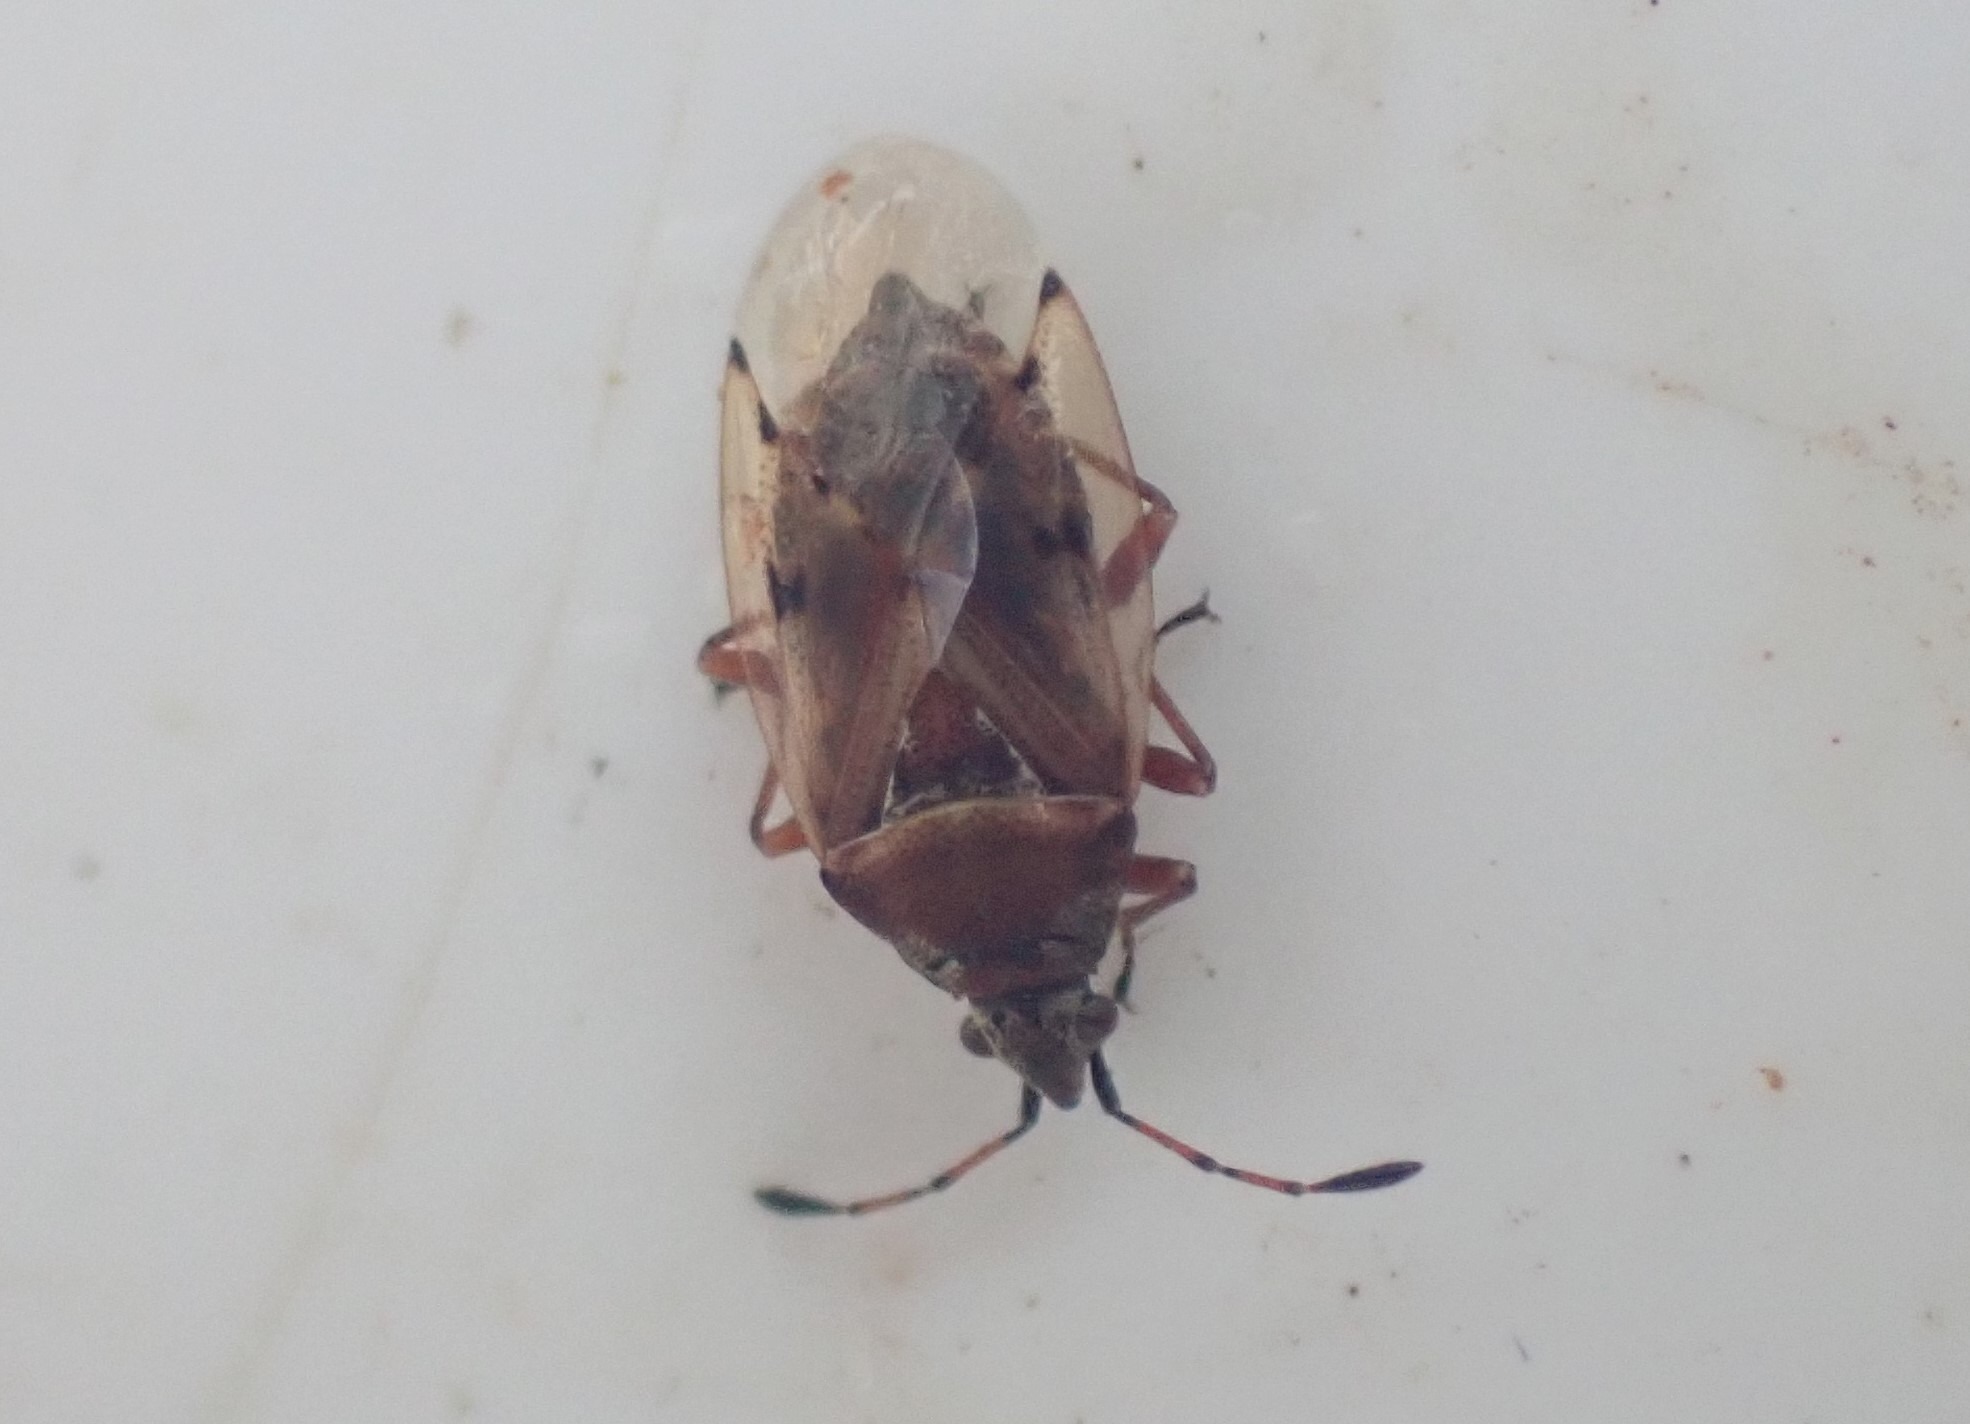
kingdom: Animalia
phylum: Arthropoda
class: Insecta
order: Hemiptera
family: Lygaeidae
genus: Kleidocerys
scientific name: Kleidocerys resedae
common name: Birkefrøtæge
